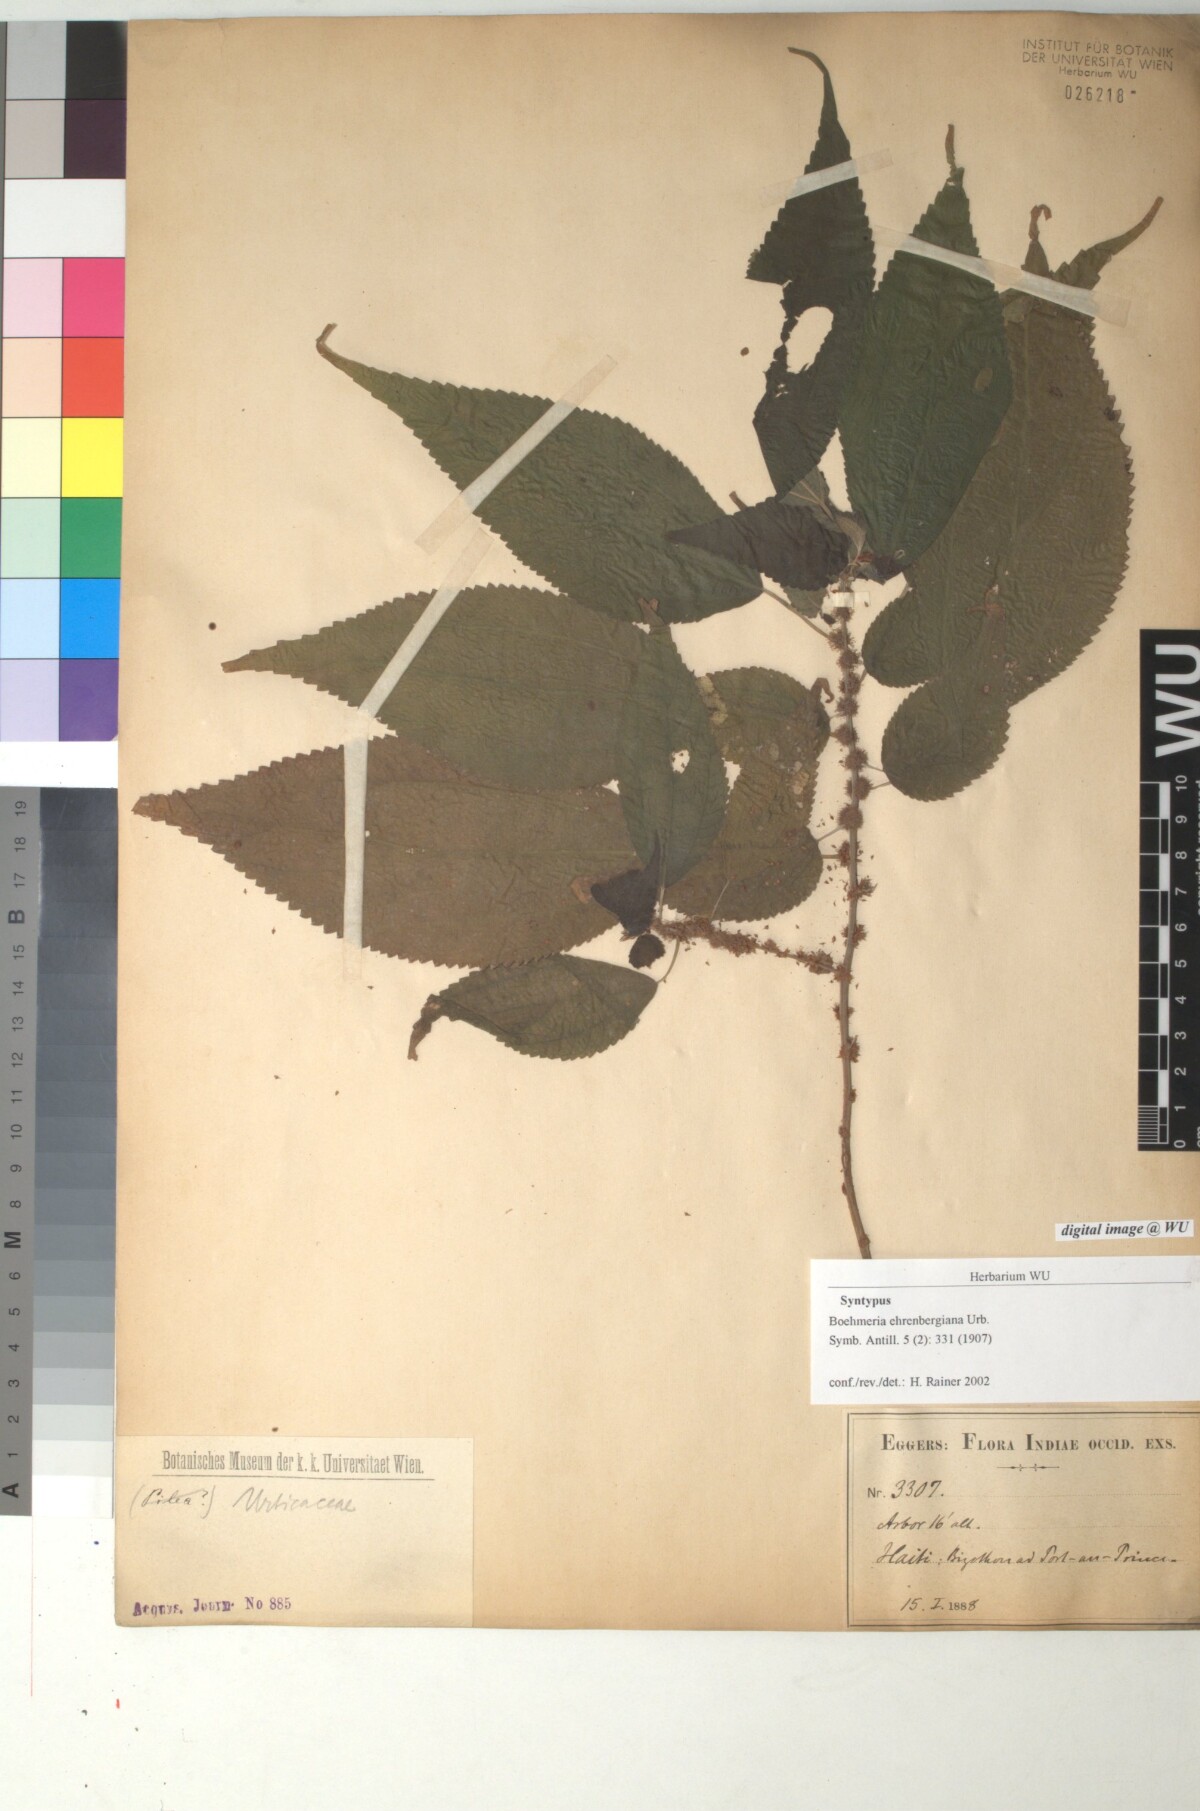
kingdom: Plantae
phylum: Tracheophyta
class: Magnoliopsida
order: Rosales
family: Urticaceae
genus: Boehmeria
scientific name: Boehmeria ehrenbergiana
